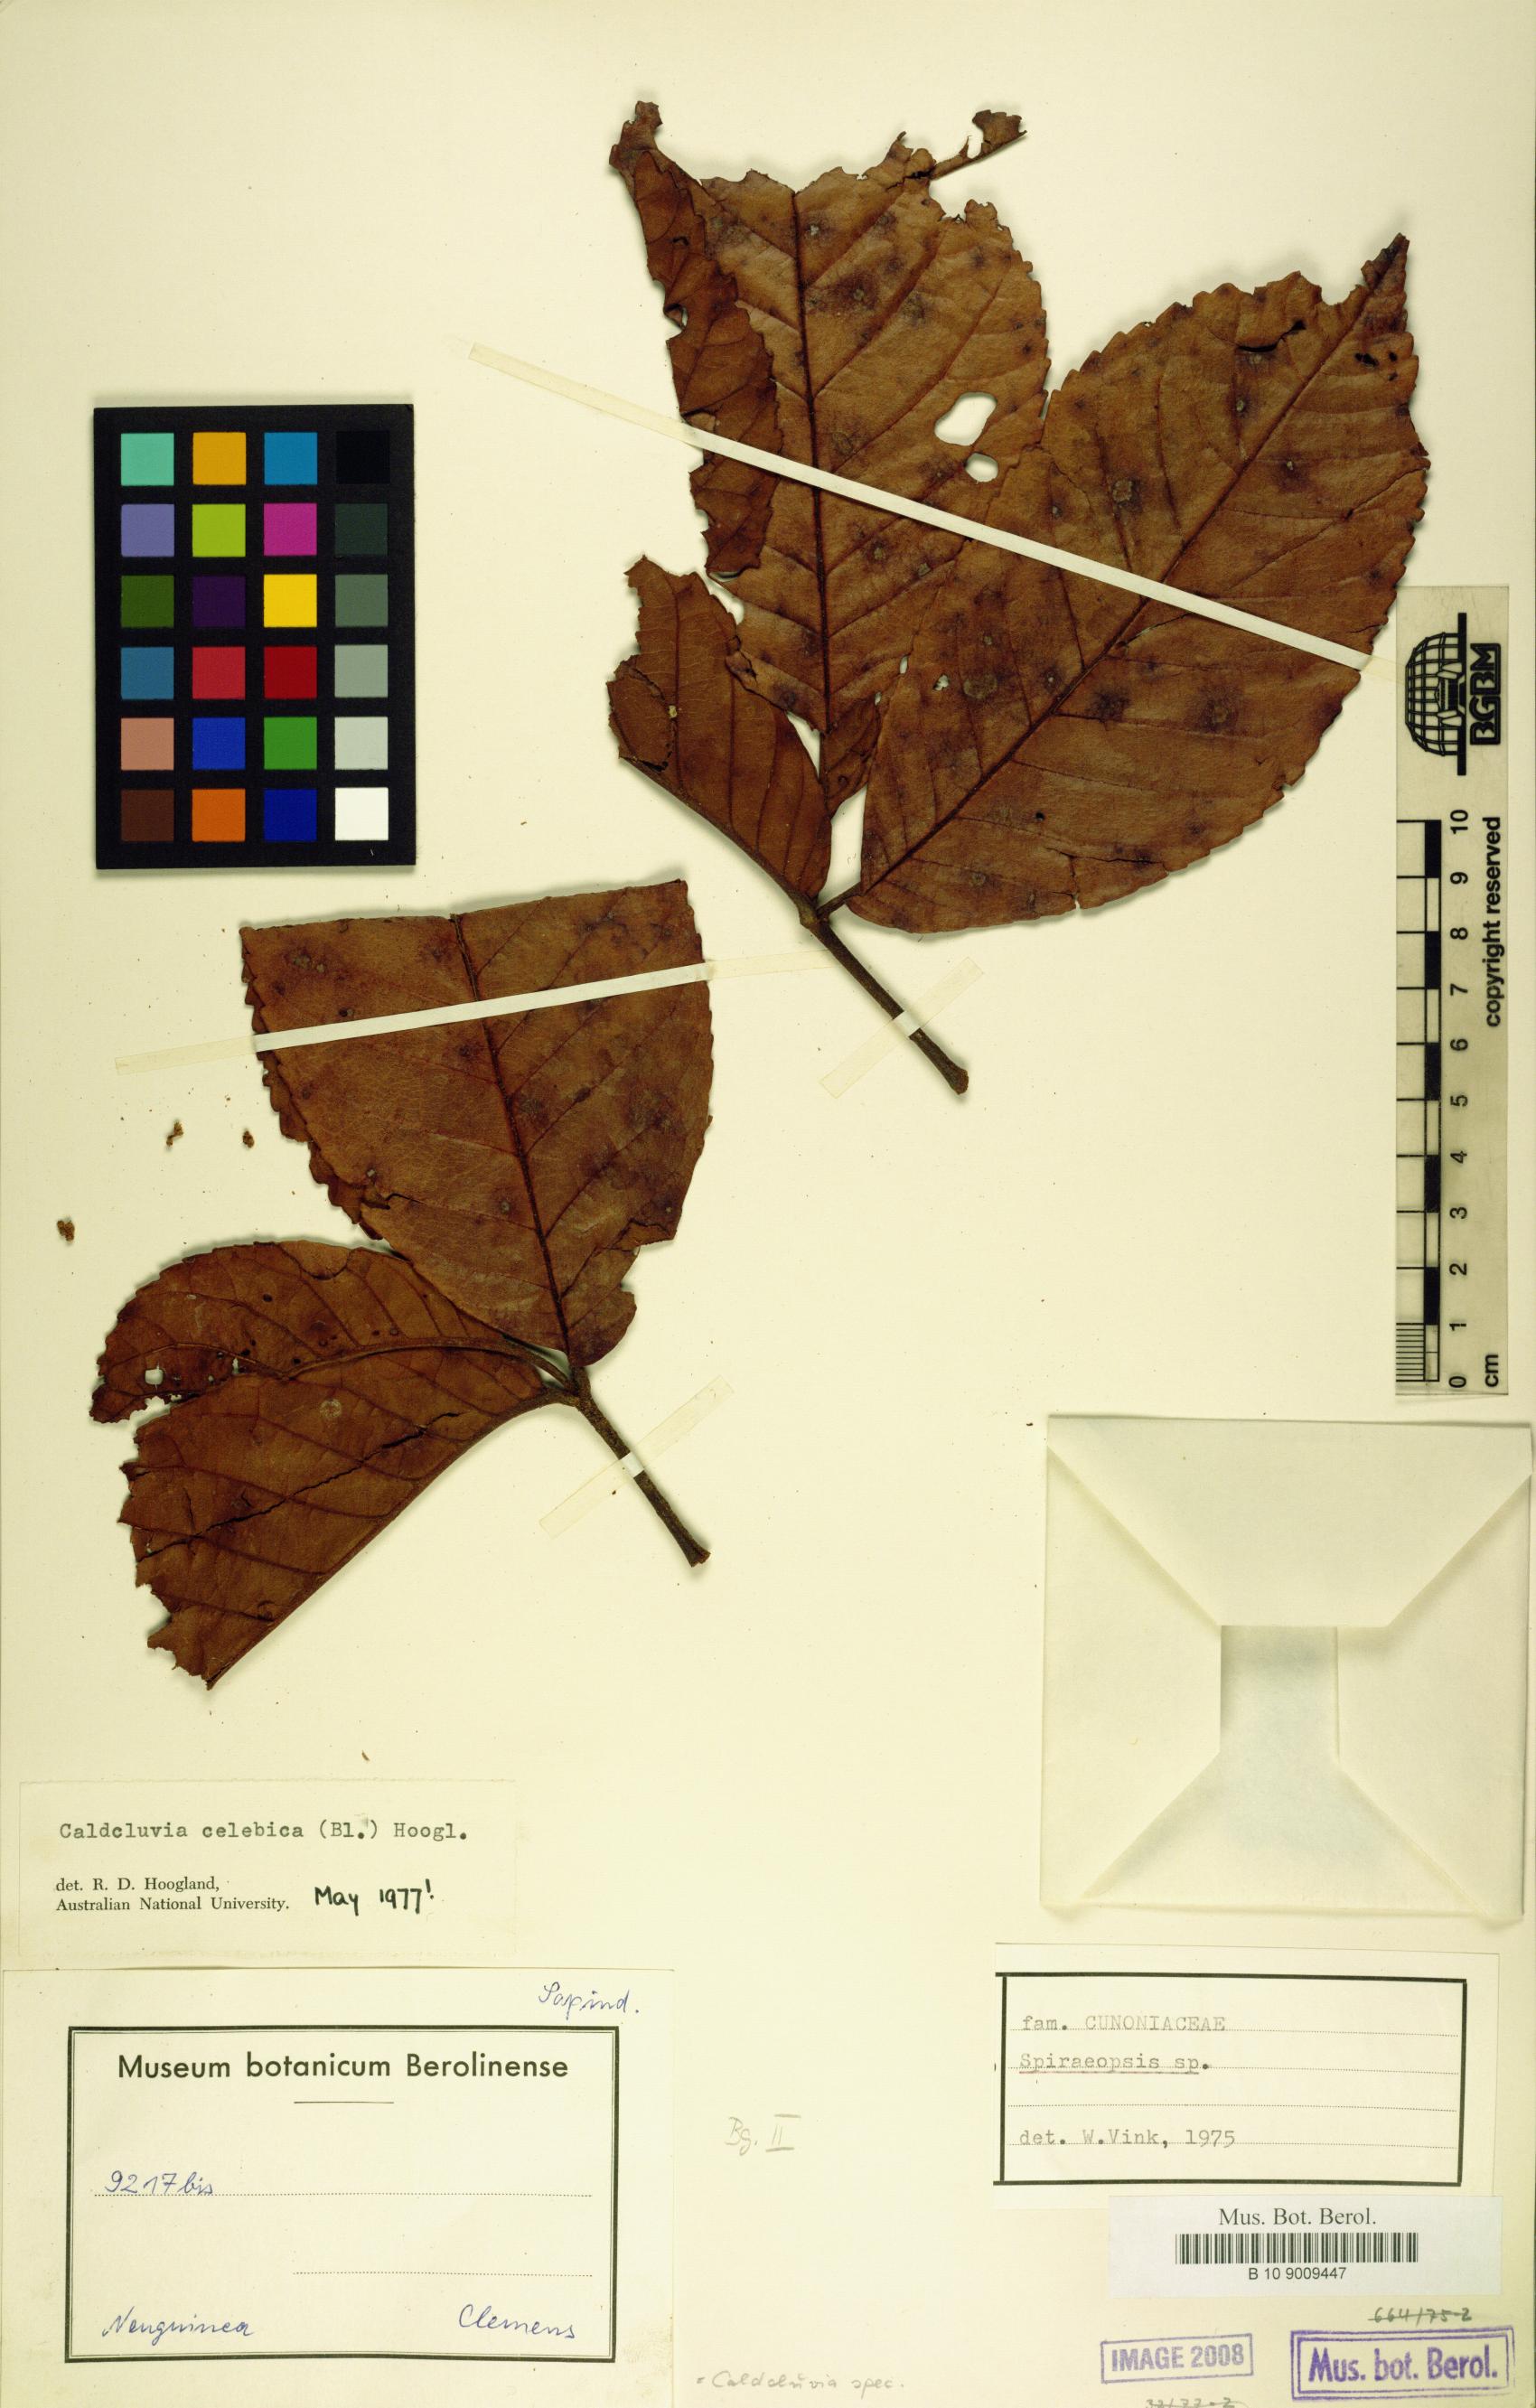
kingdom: Plantae
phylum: Tracheophyta
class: Magnoliopsida
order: Oxalidales
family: Cunoniaceae
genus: Ackama
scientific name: Ackama celebica
